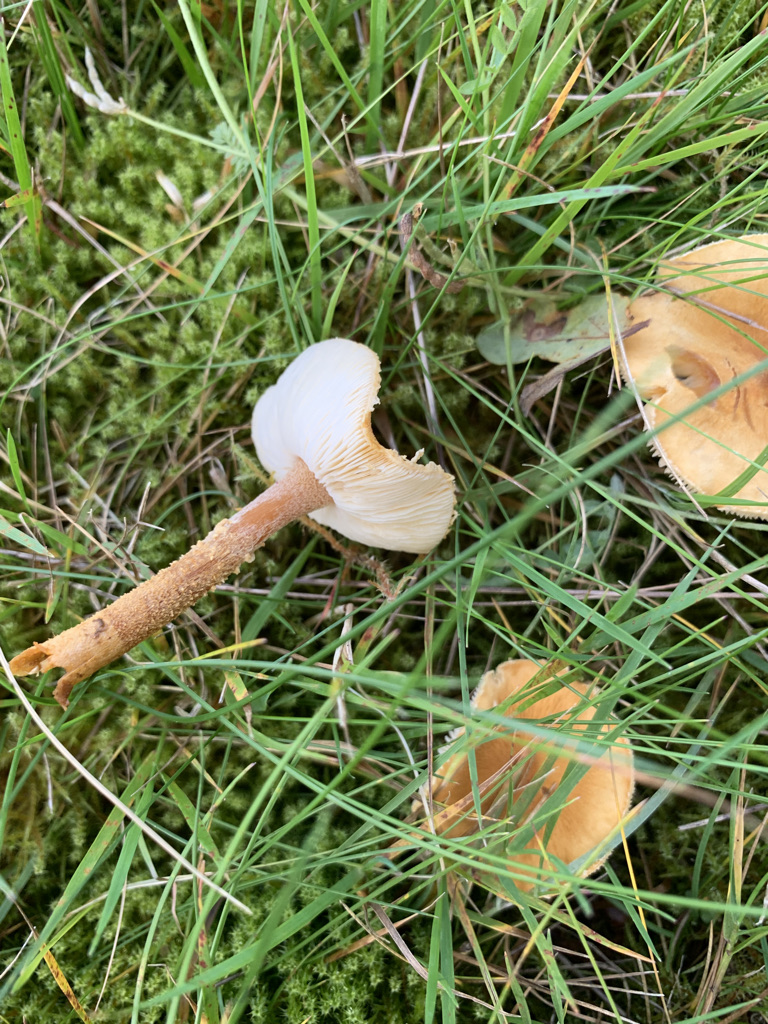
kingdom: Fungi
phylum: Basidiomycota
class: Agaricomycetes
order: Agaricales
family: Tricholomataceae
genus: Cystoderma
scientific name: Cystoderma amianthinum
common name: okkergul grynhat
